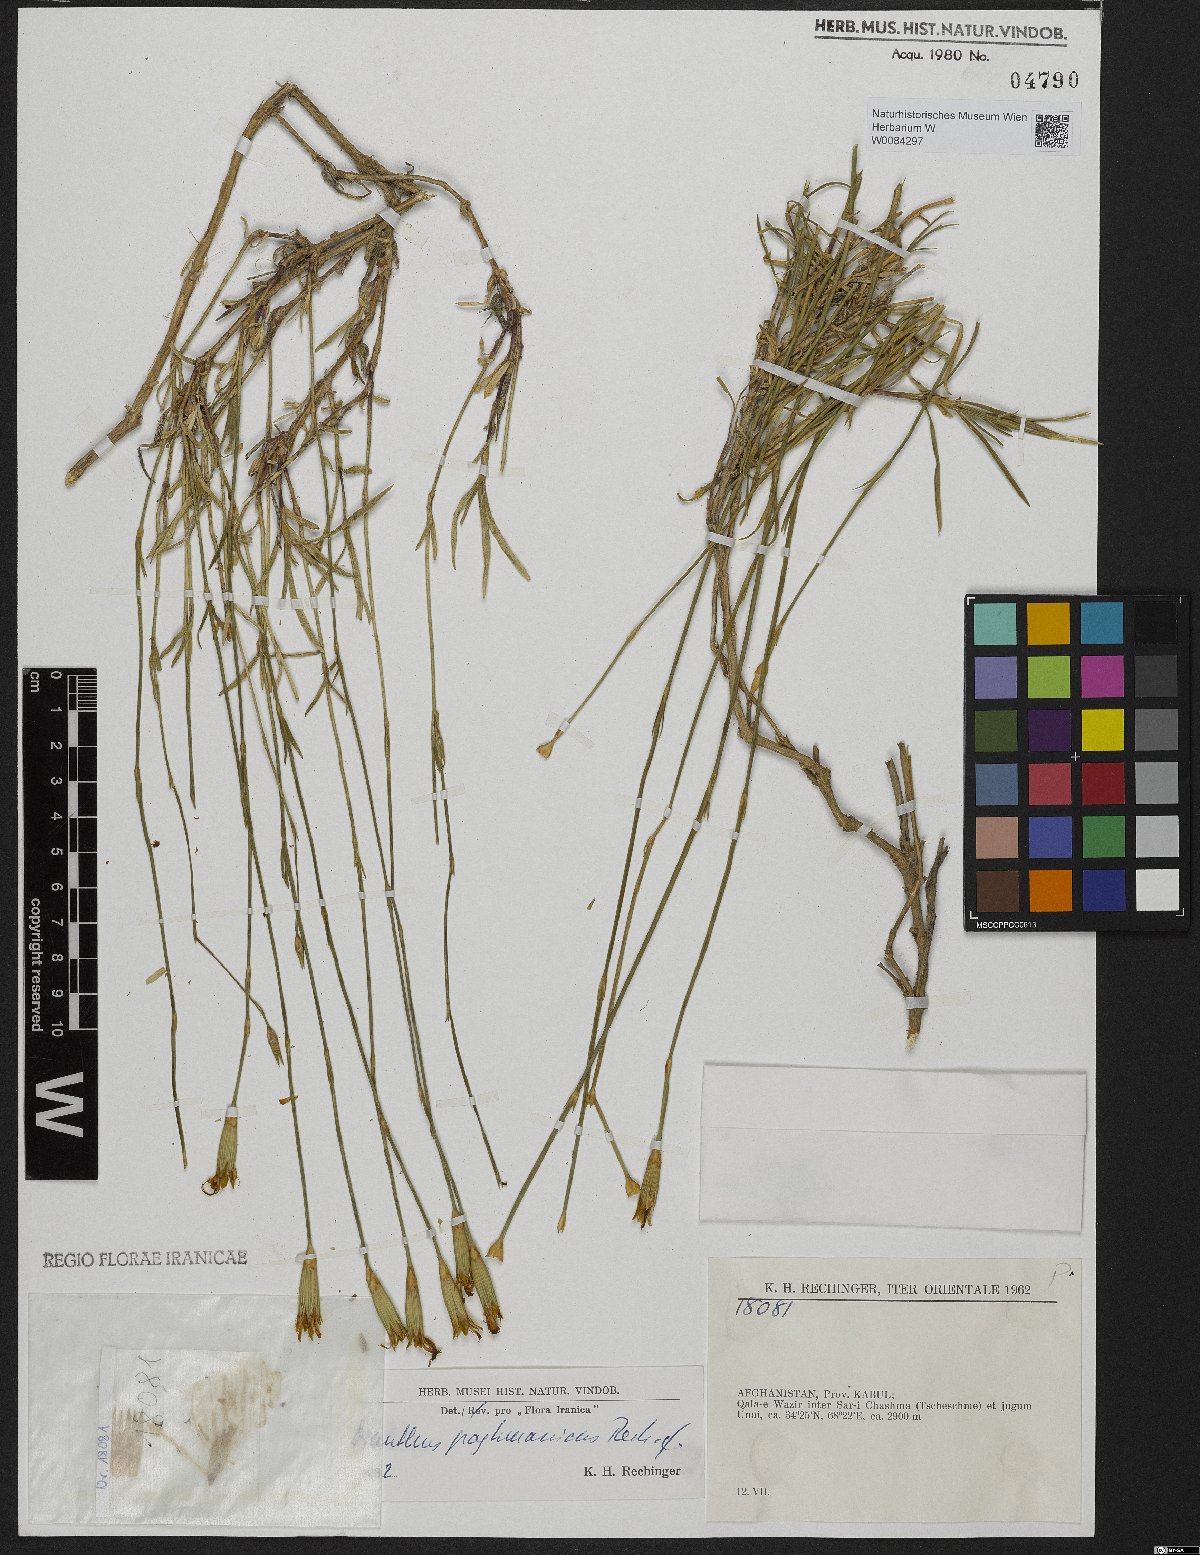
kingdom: Plantae
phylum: Tracheophyta
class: Magnoliopsida
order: Caryophyllales
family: Caryophyllaceae
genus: Dianthus
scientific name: Dianthus paghmanicus
